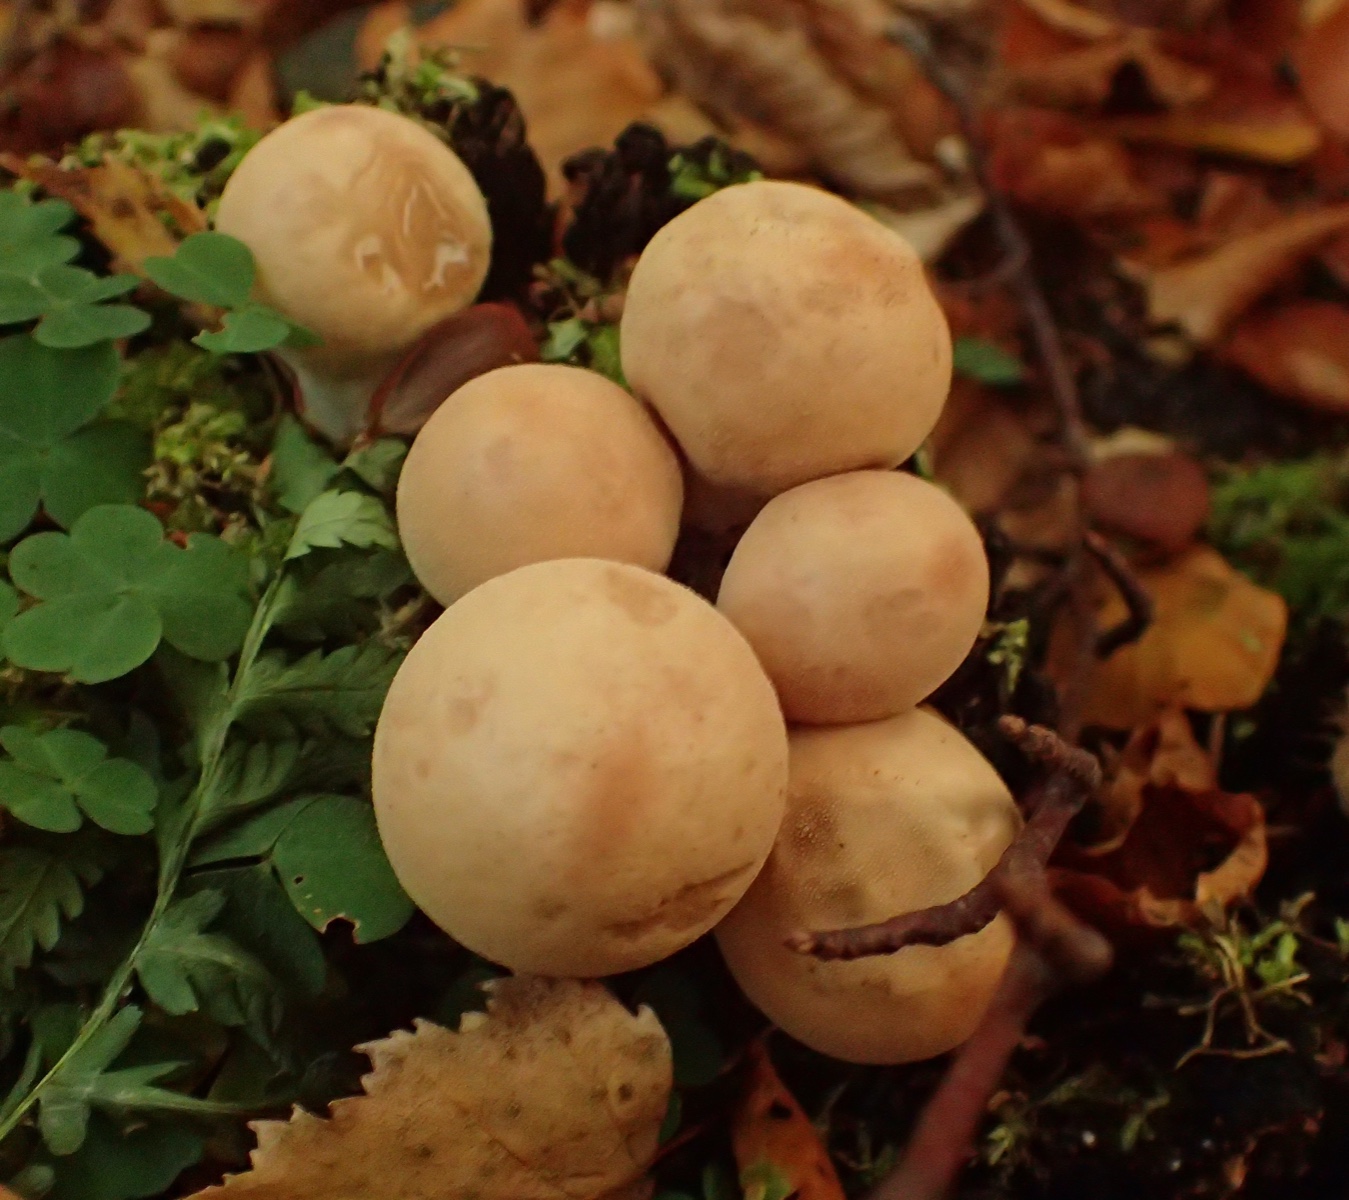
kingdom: Fungi
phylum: Basidiomycota
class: Agaricomycetes
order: Agaricales
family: Lycoperdaceae
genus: Apioperdon
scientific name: Apioperdon pyriforme
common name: pære-støvbold
